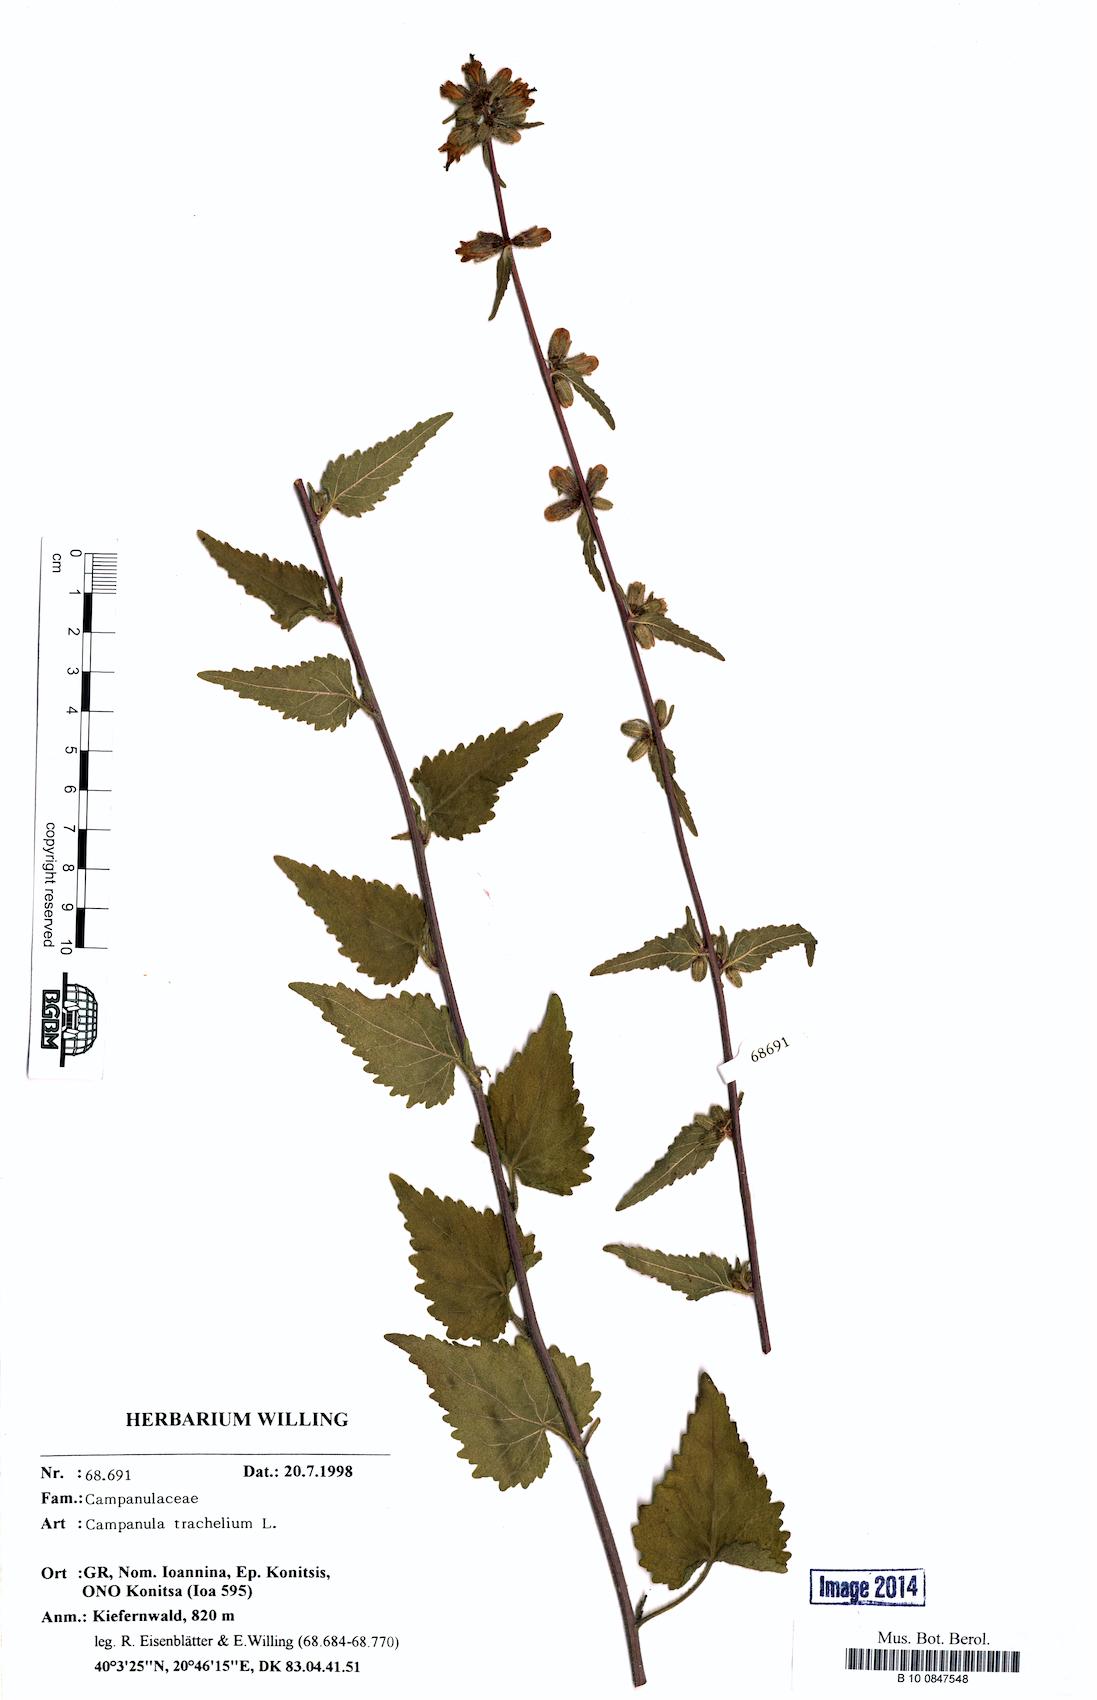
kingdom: Plantae
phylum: Tracheophyta
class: Magnoliopsida
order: Asterales
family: Campanulaceae
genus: Campanula
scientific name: Campanula trachelium
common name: Nettle-leaved bellflower
